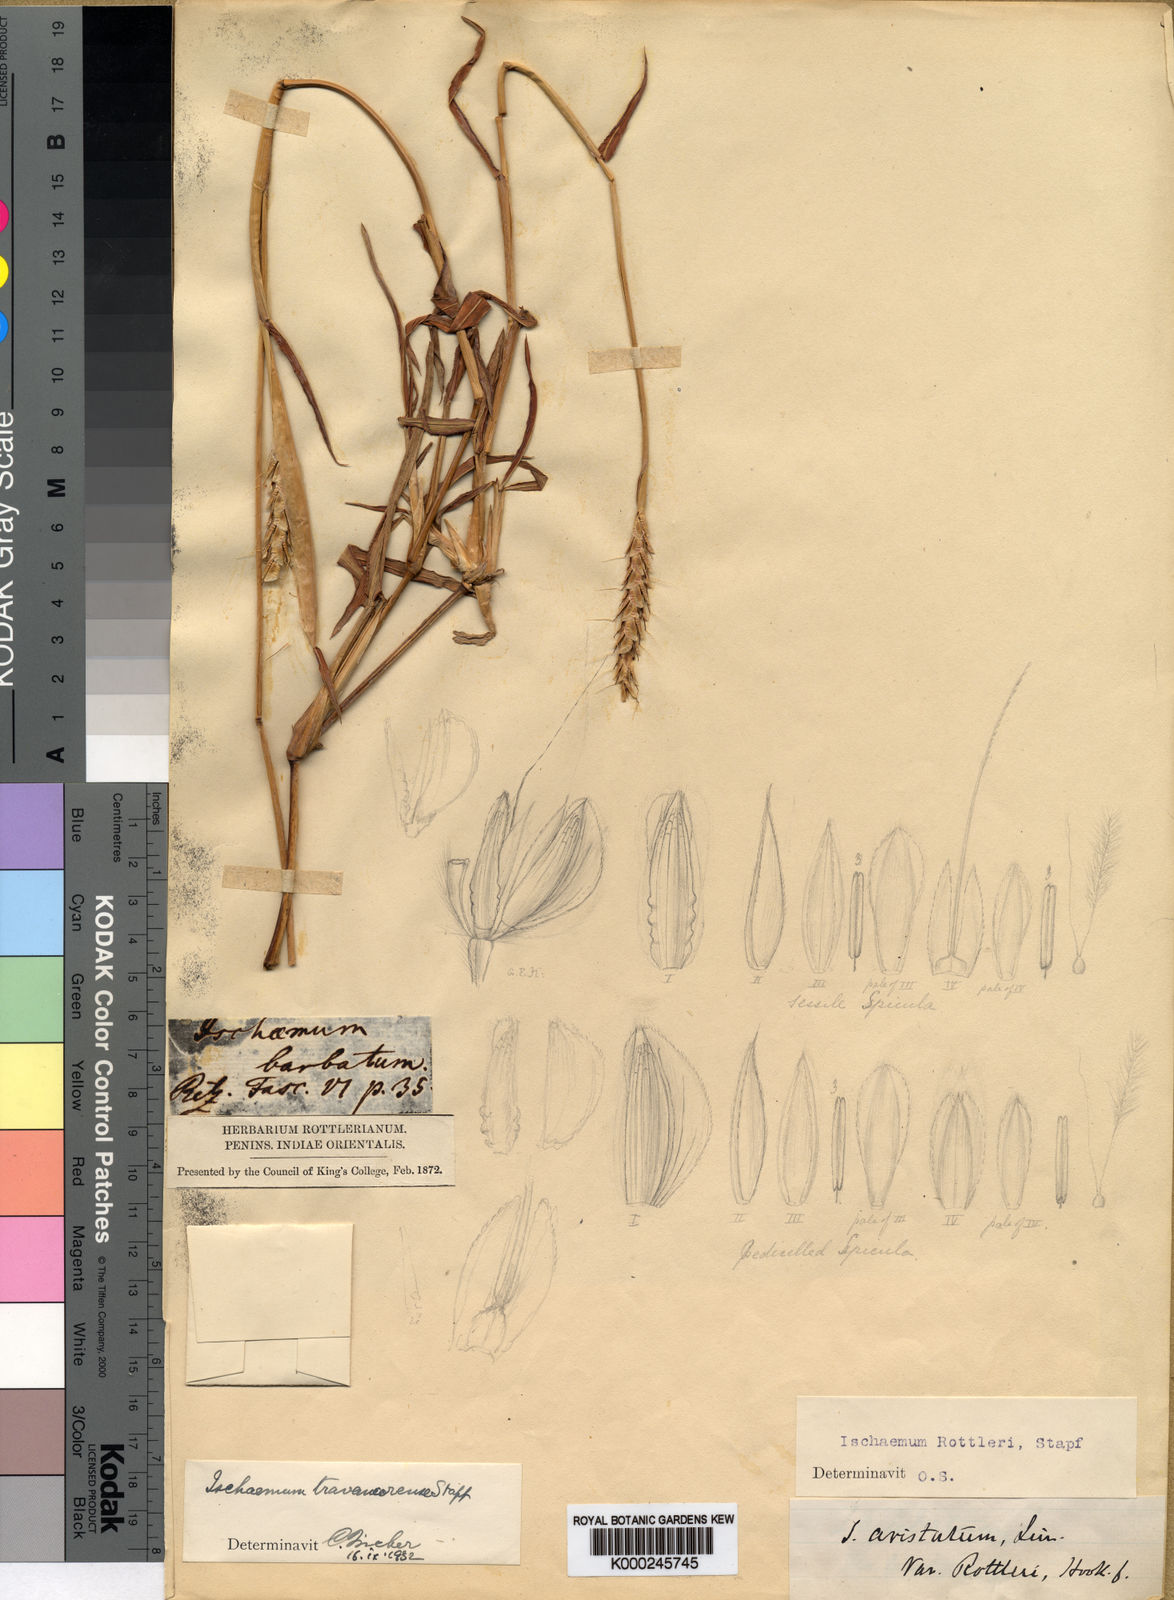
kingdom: Plantae
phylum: Tracheophyta
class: Liliopsida
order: Poales
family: Poaceae
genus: Ischaemum
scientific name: Ischaemum travancorense
